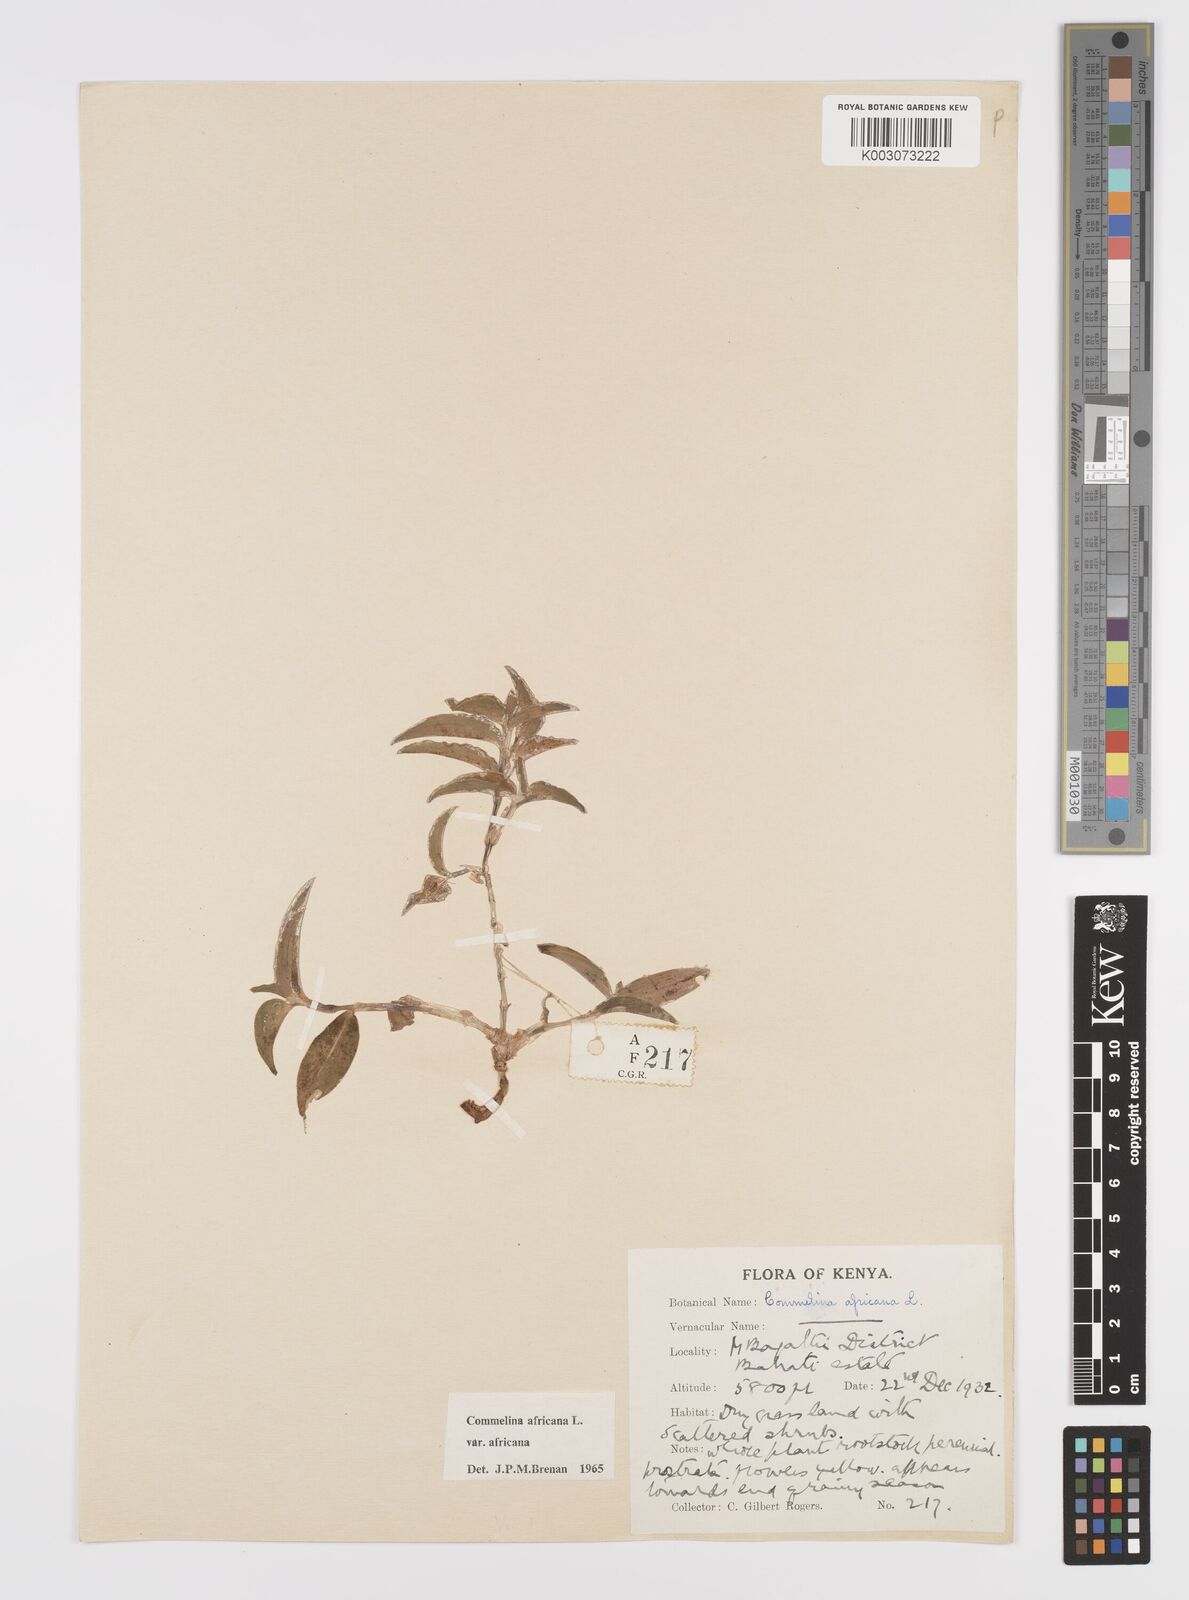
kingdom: Plantae
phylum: Tracheophyta
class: Liliopsida
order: Commelinales
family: Commelinaceae
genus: Commelina
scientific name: Commelina africana
